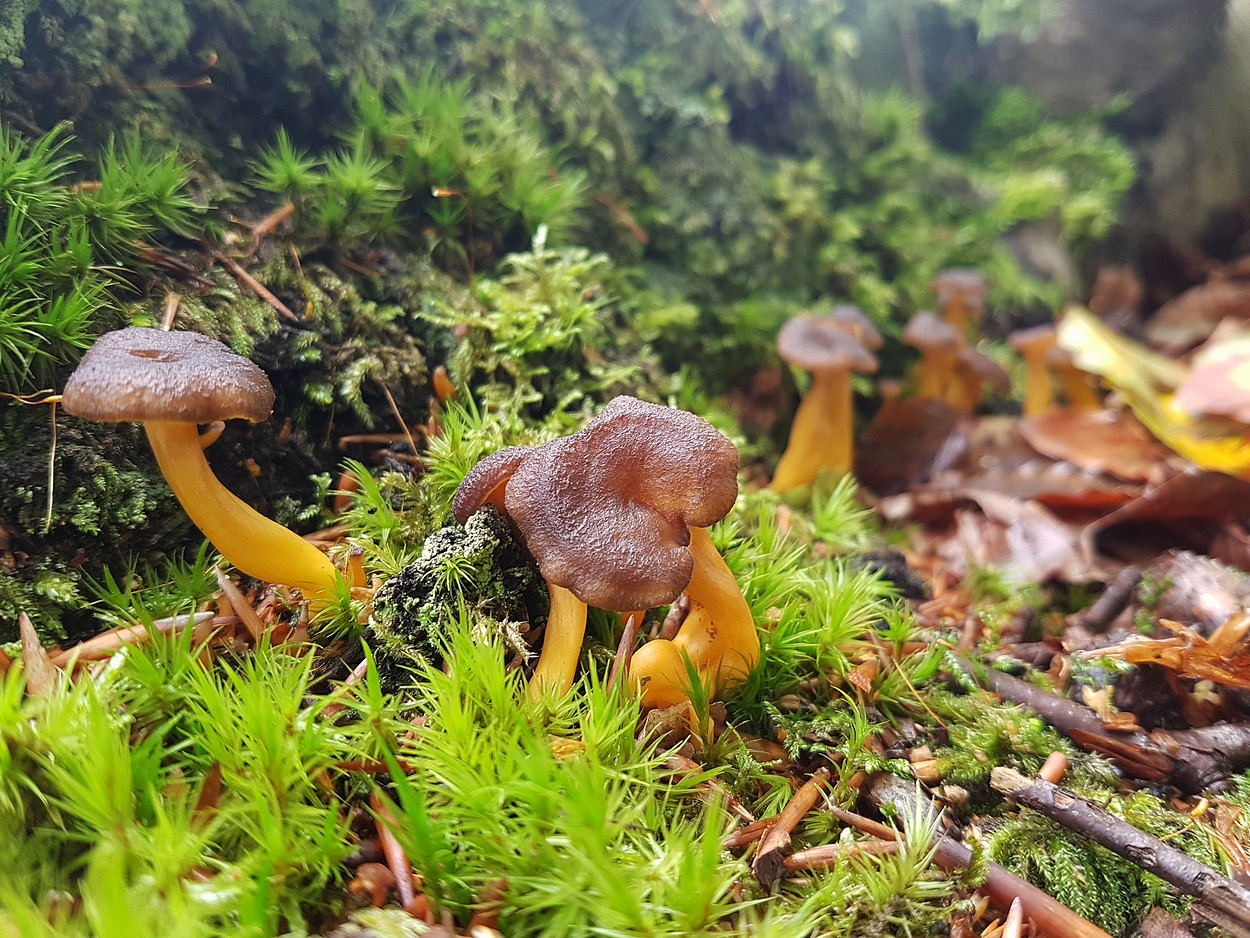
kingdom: Fungi
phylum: Basidiomycota
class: Agaricomycetes
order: Cantharellales
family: Hydnaceae
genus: Craterellus
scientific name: Craterellus tubaeformis
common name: tragt-kantarel
